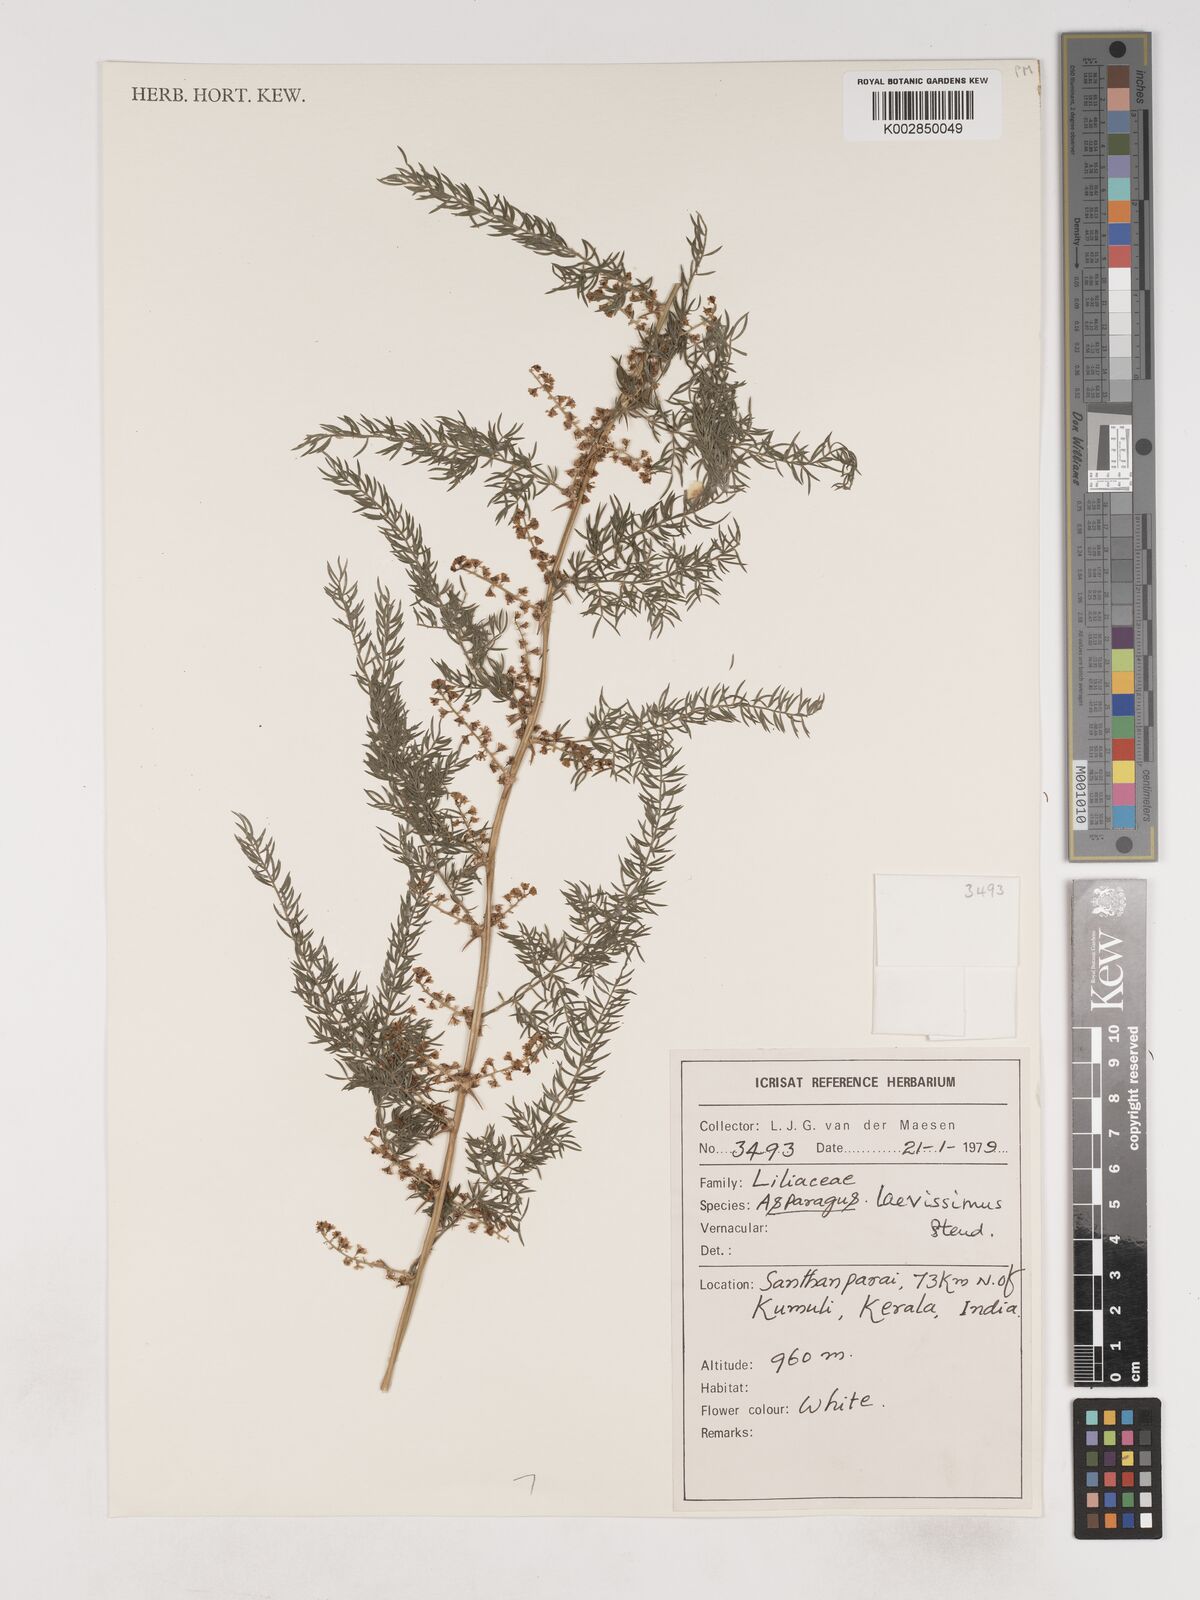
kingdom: Plantae
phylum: Tracheophyta
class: Liliopsida
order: Asparagales
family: Asparagaceae
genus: Asparagus
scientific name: Asparagus laevissimus
